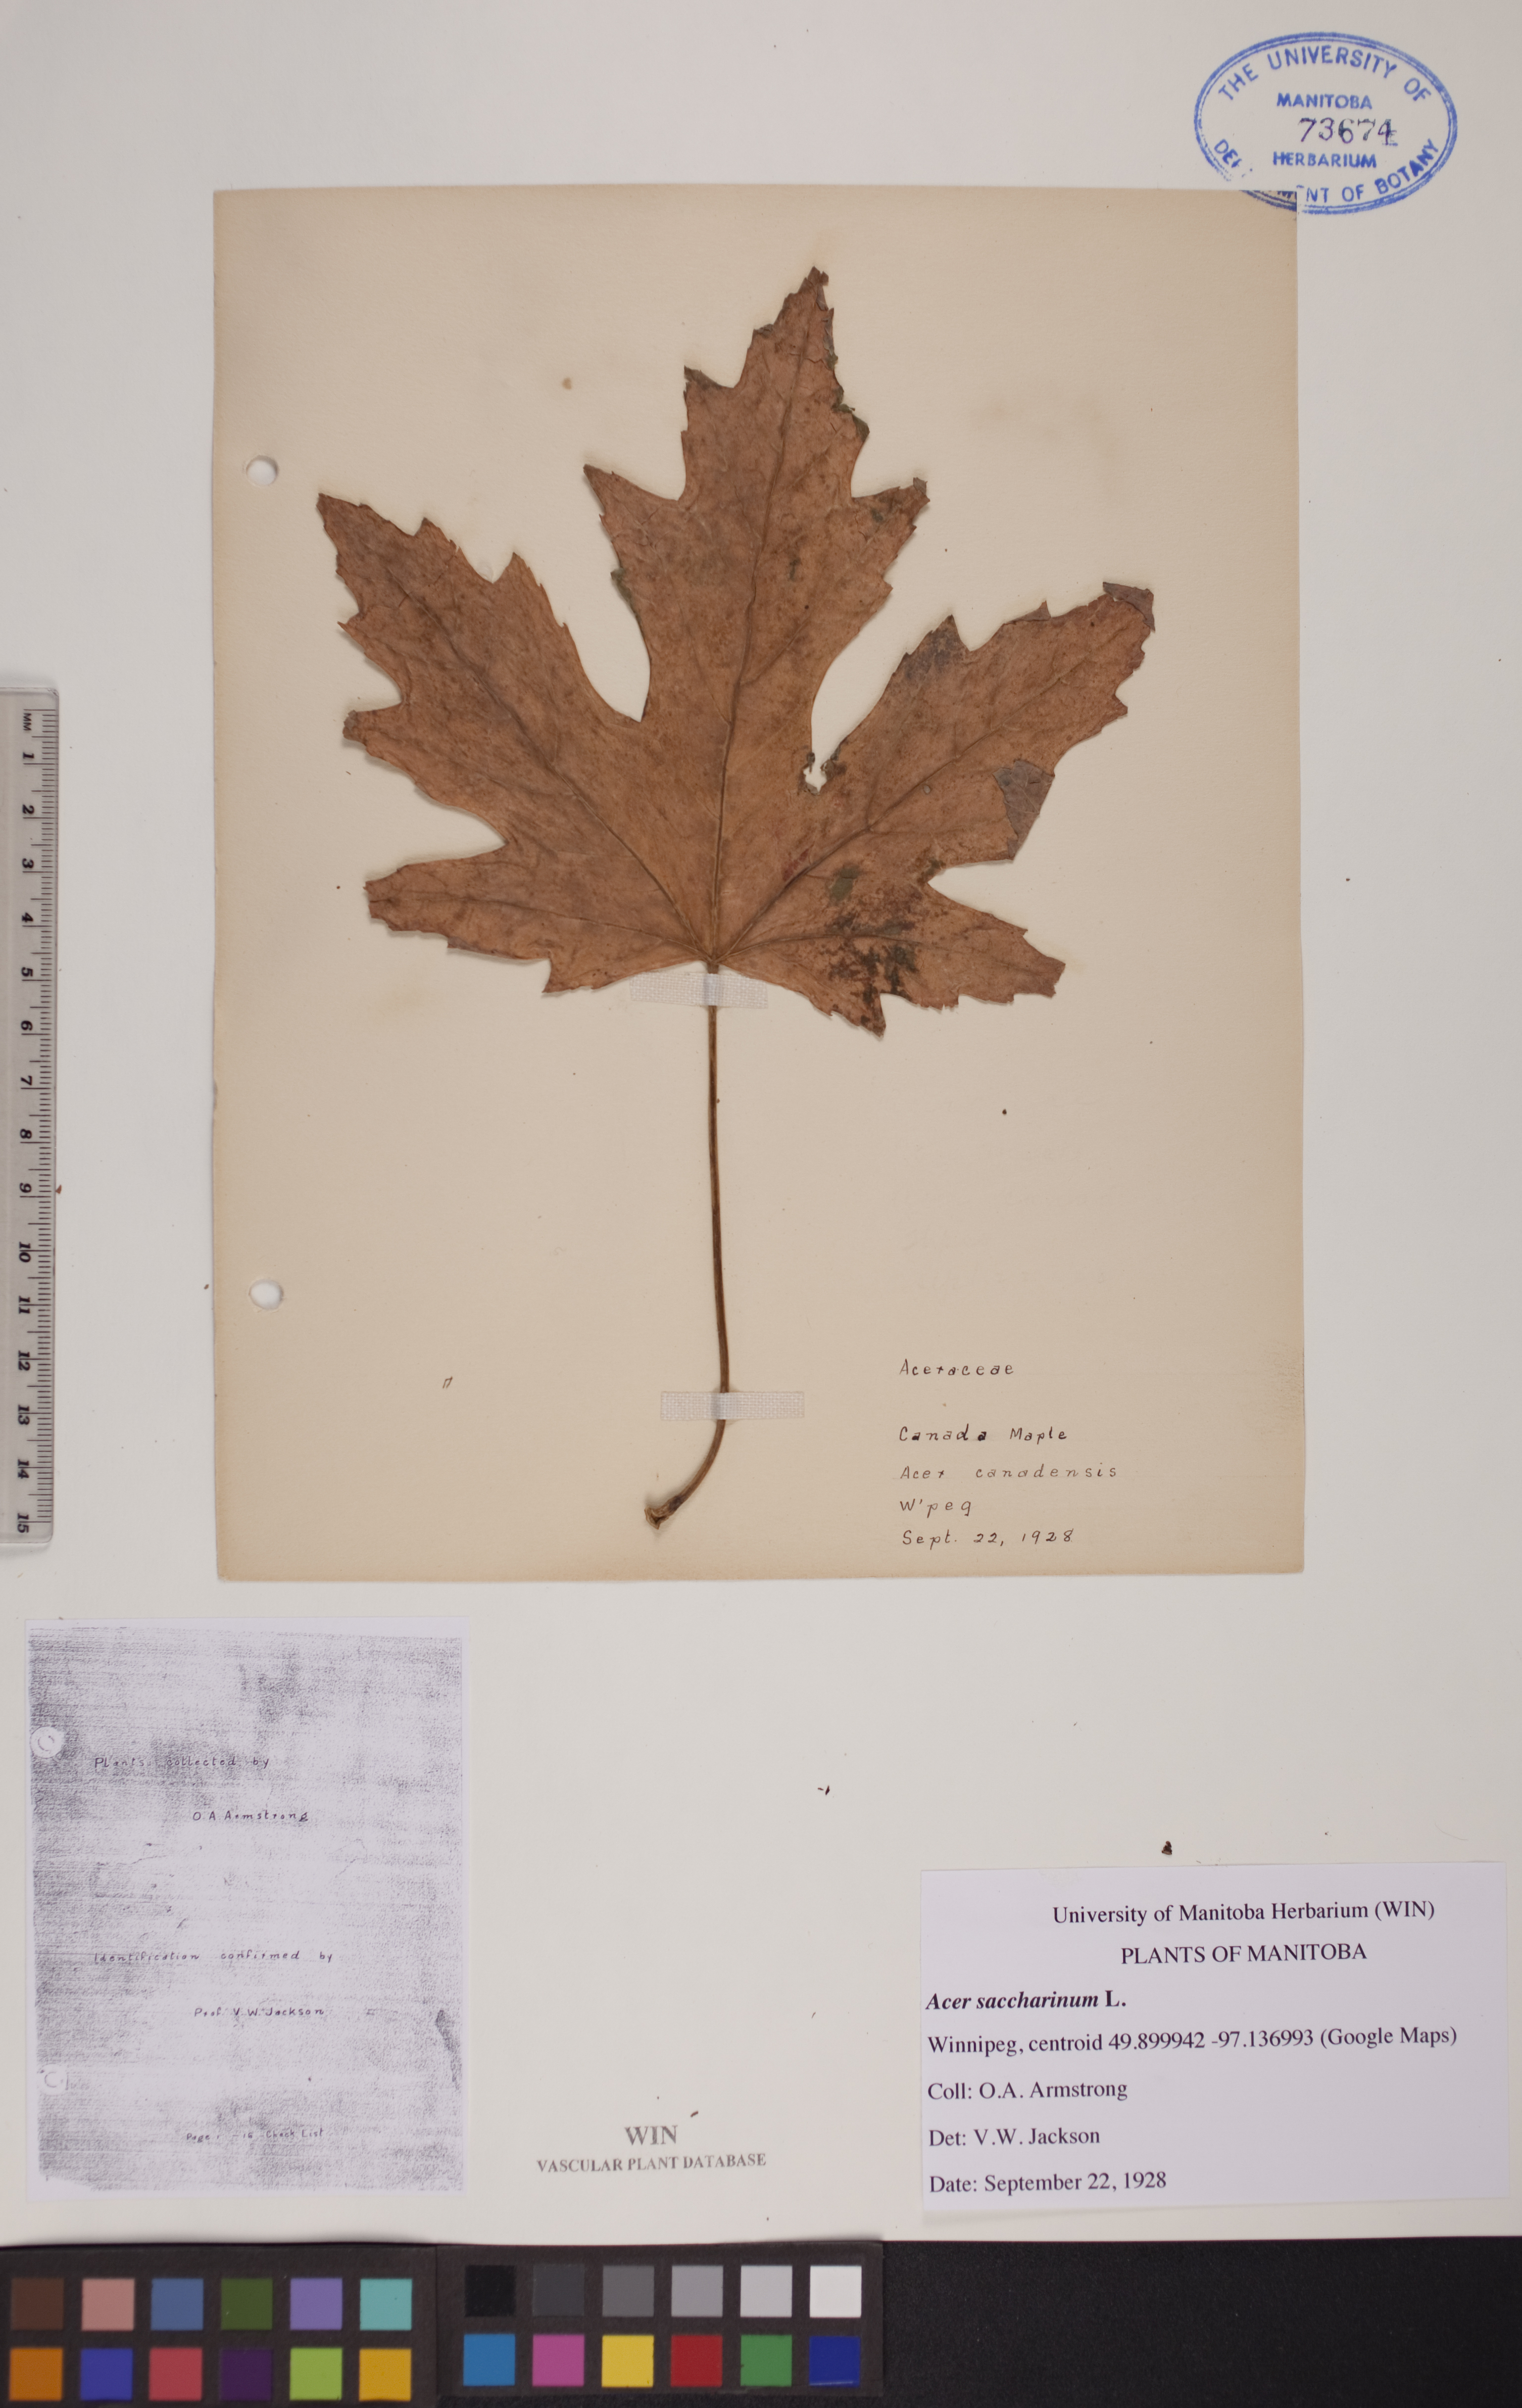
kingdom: Plantae
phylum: Tracheophyta
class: Magnoliopsida
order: Sapindales
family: Sapindaceae
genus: Acer
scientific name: Acer saccharinum
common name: Silver maple
